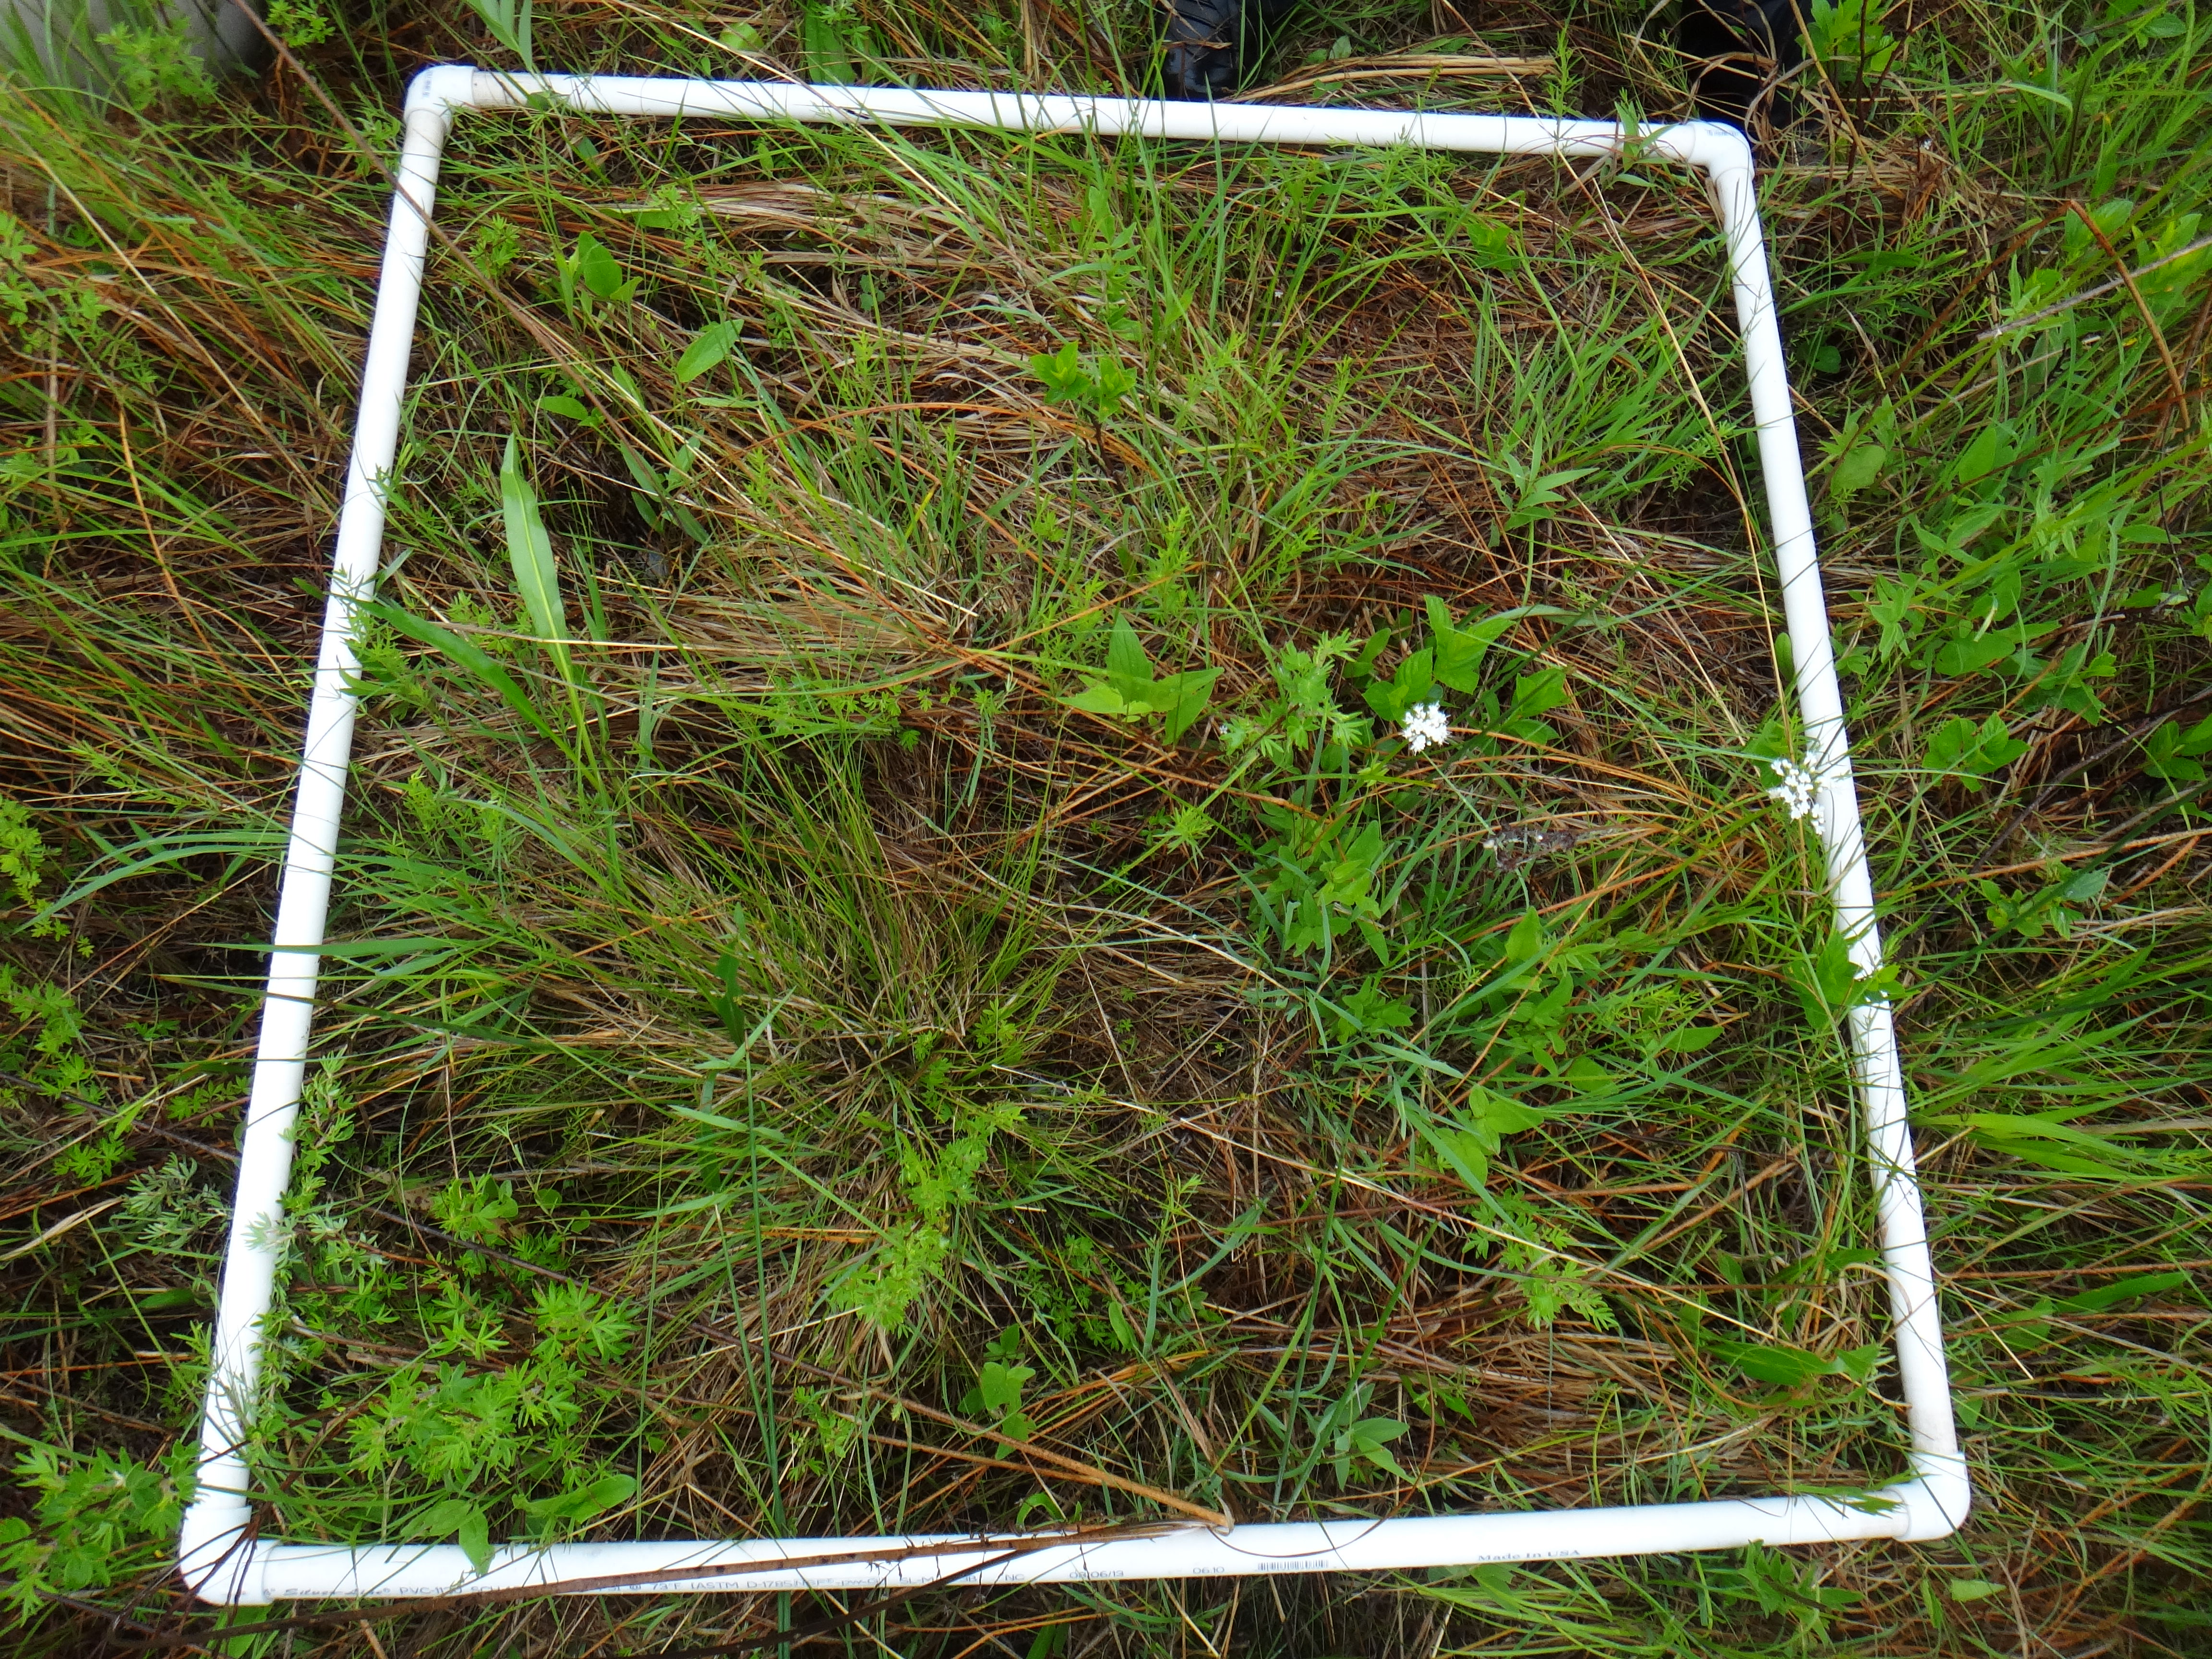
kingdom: Plantae
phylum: Tracheophyta
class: Liliopsida
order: Poales
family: Cyperaceae
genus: Carex
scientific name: Carex lasiocarpa
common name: Slender sedge
